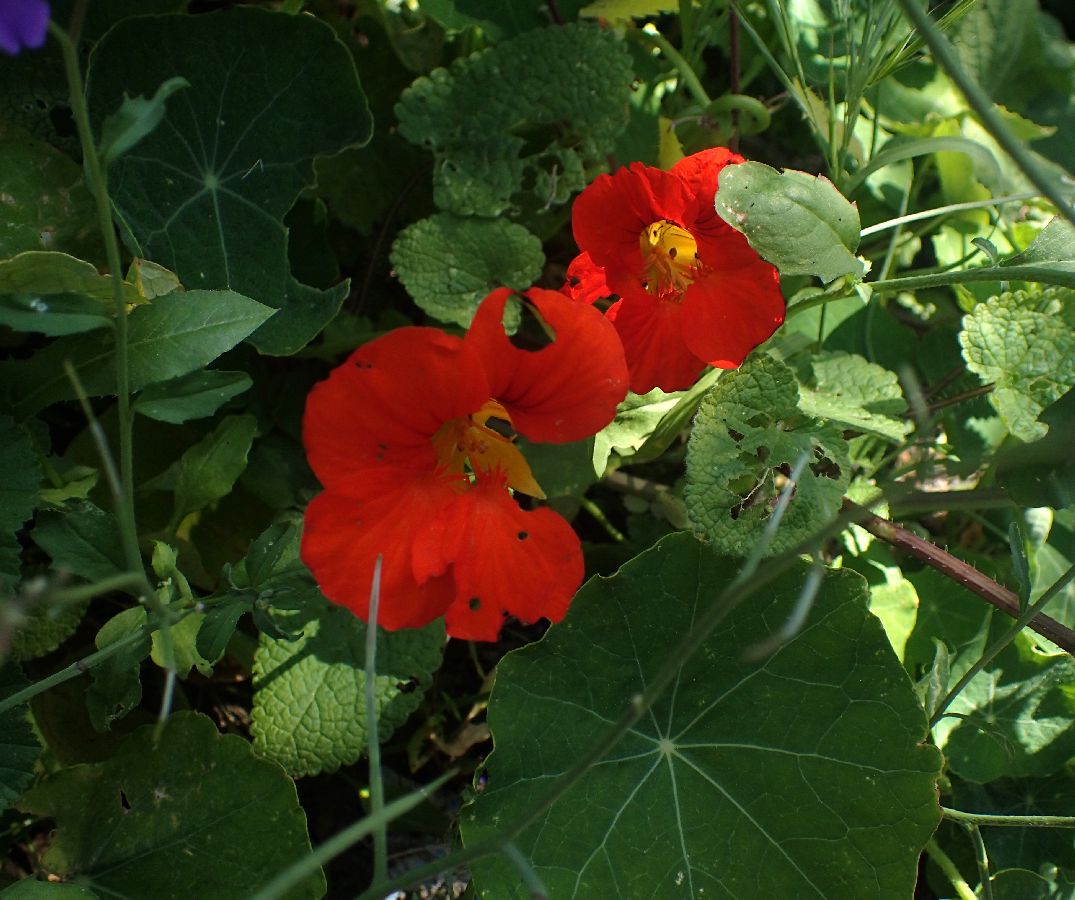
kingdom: Plantae
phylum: Tracheophyta
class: Magnoliopsida
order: Brassicales
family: Tropaeolaceae
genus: Tropaeolum
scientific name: Tropaeolum majus
